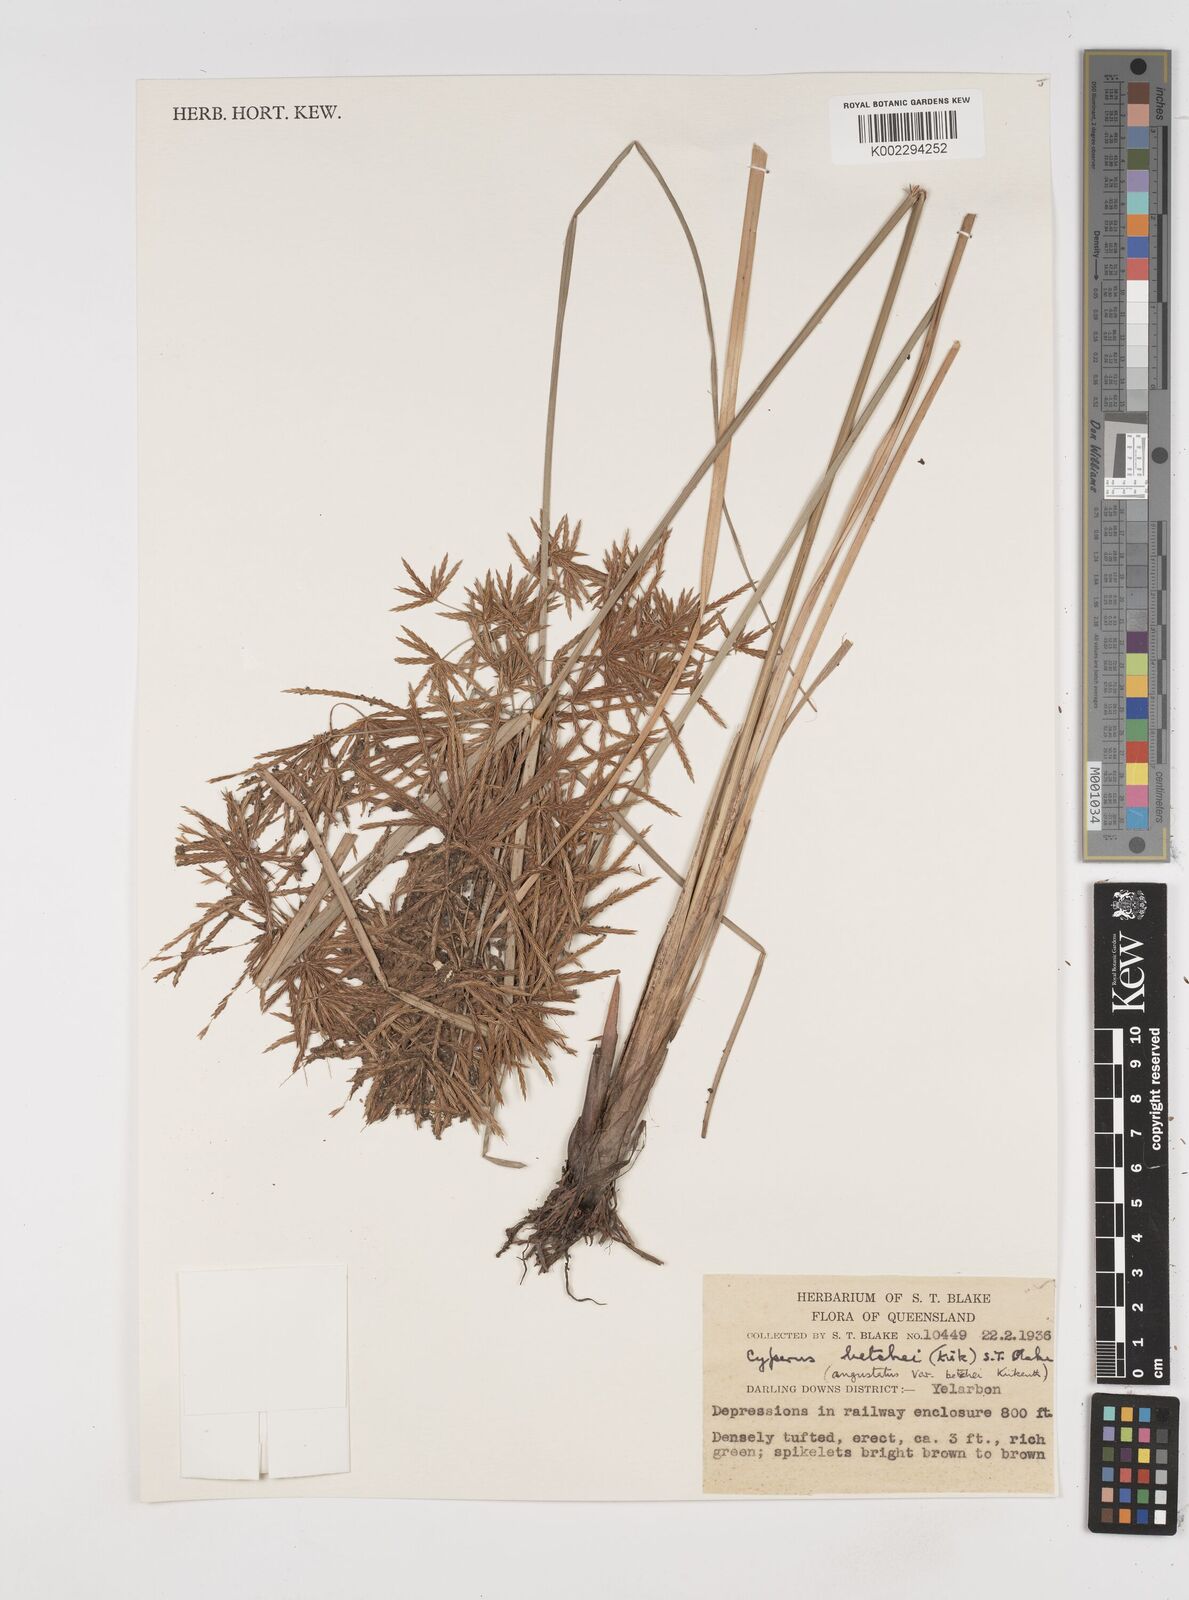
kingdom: Plantae
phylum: Tracheophyta
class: Liliopsida
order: Poales
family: Cyperaceae
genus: Cyperus
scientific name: Cyperus betchei
